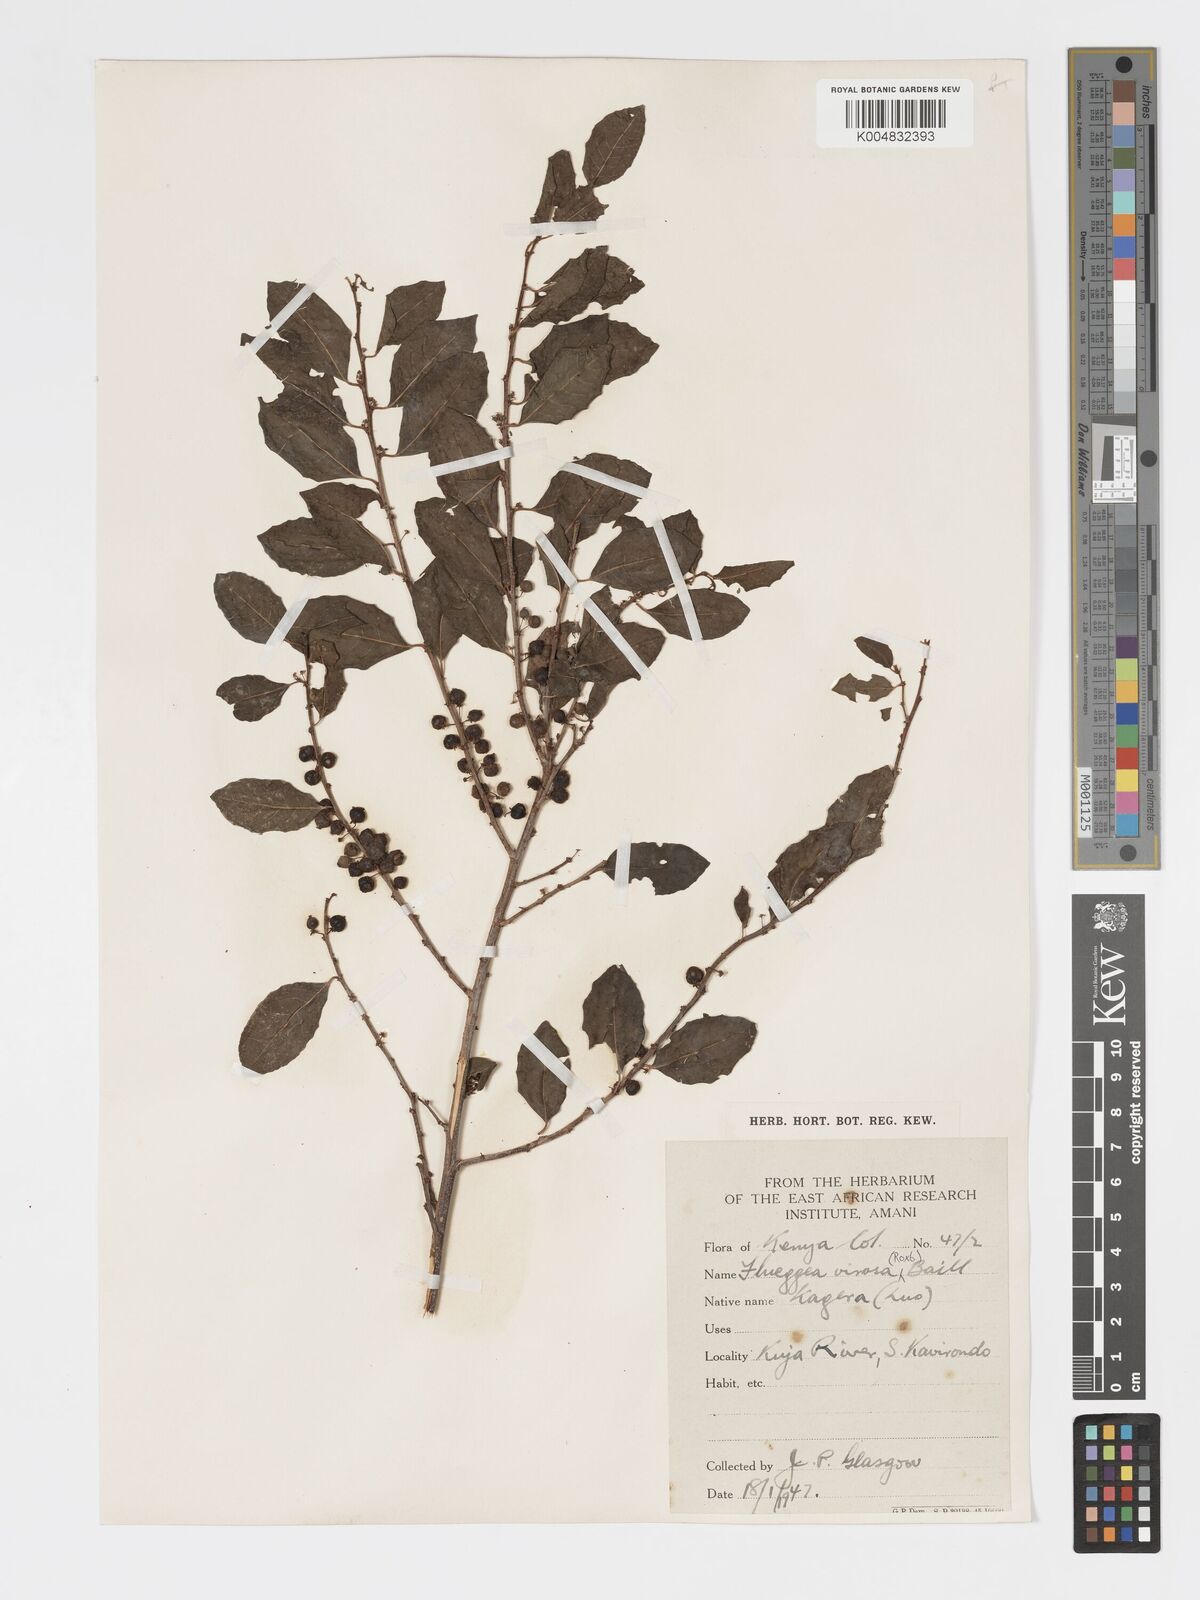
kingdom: Plantae
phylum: Tracheophyta
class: Magnoliopsida
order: Malpighiales
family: Phyllanthaceae
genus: Flueggea
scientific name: Flueggea virosa
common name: Common bushweed
